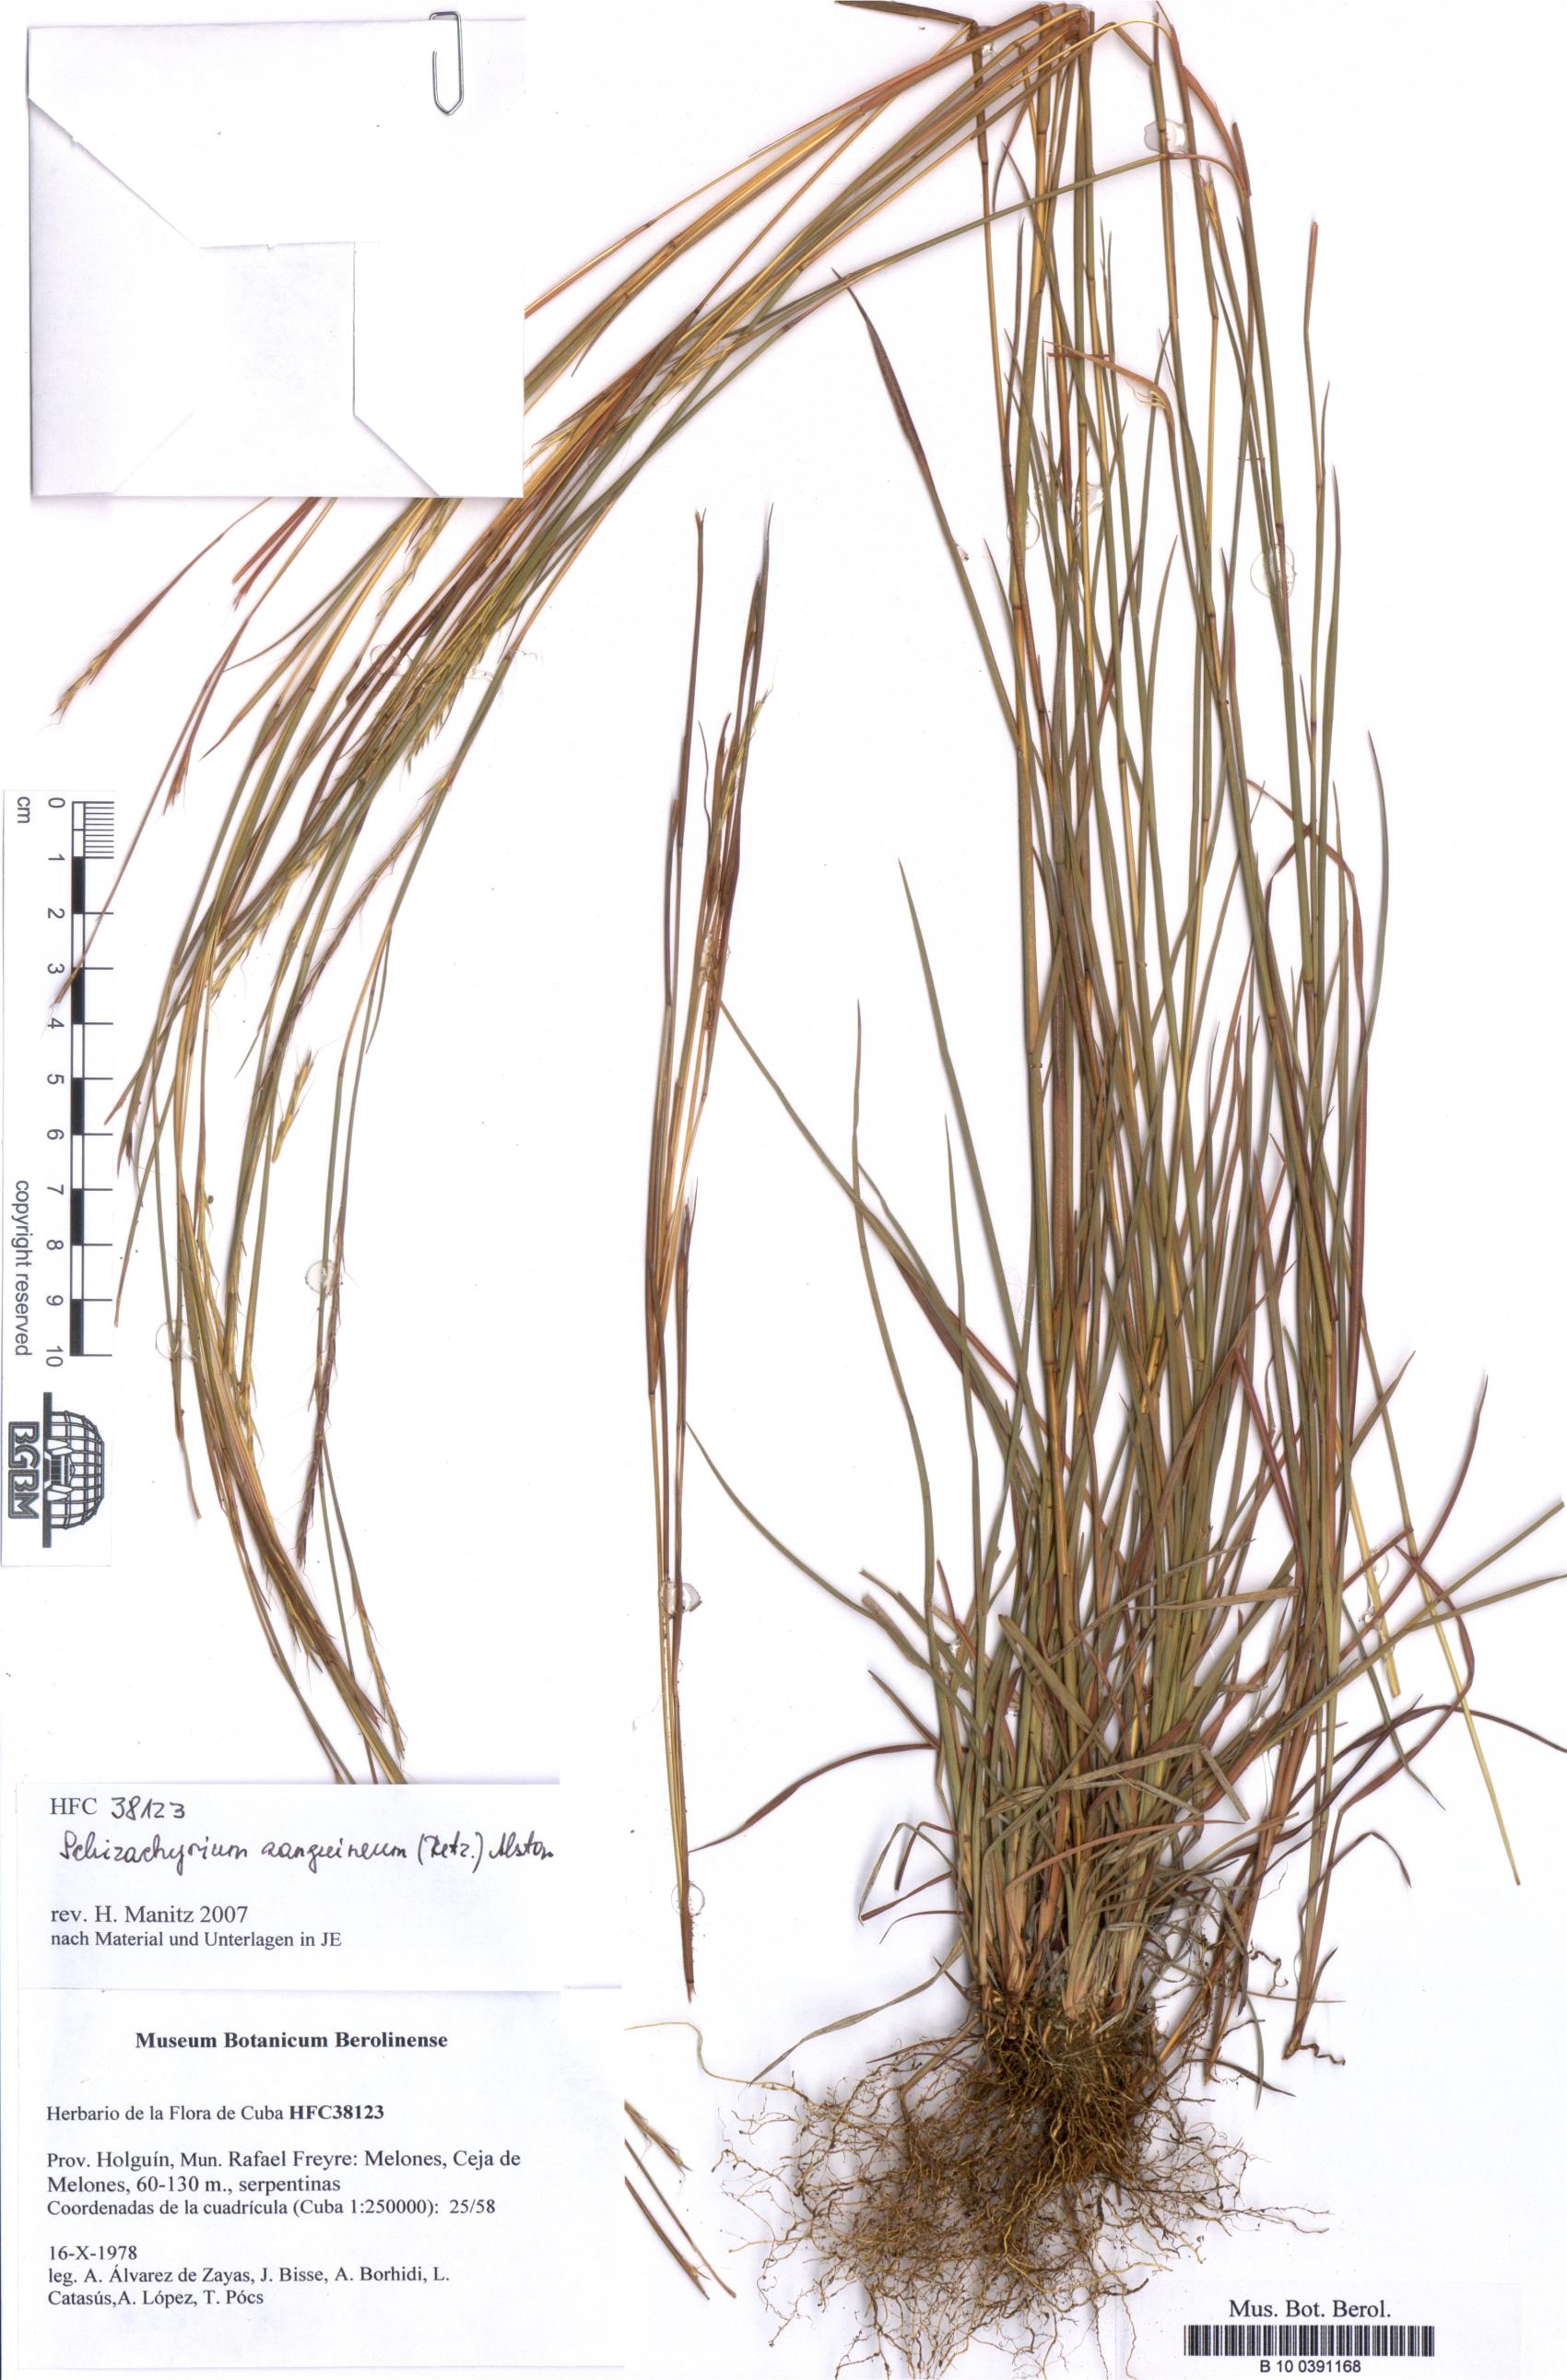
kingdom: Plantae
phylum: Tracheophyta
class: Liliopsida
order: Poales
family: Poaceae
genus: Schizachyrium
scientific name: Schizachyrium sanguineum
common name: Crimson bluestem
